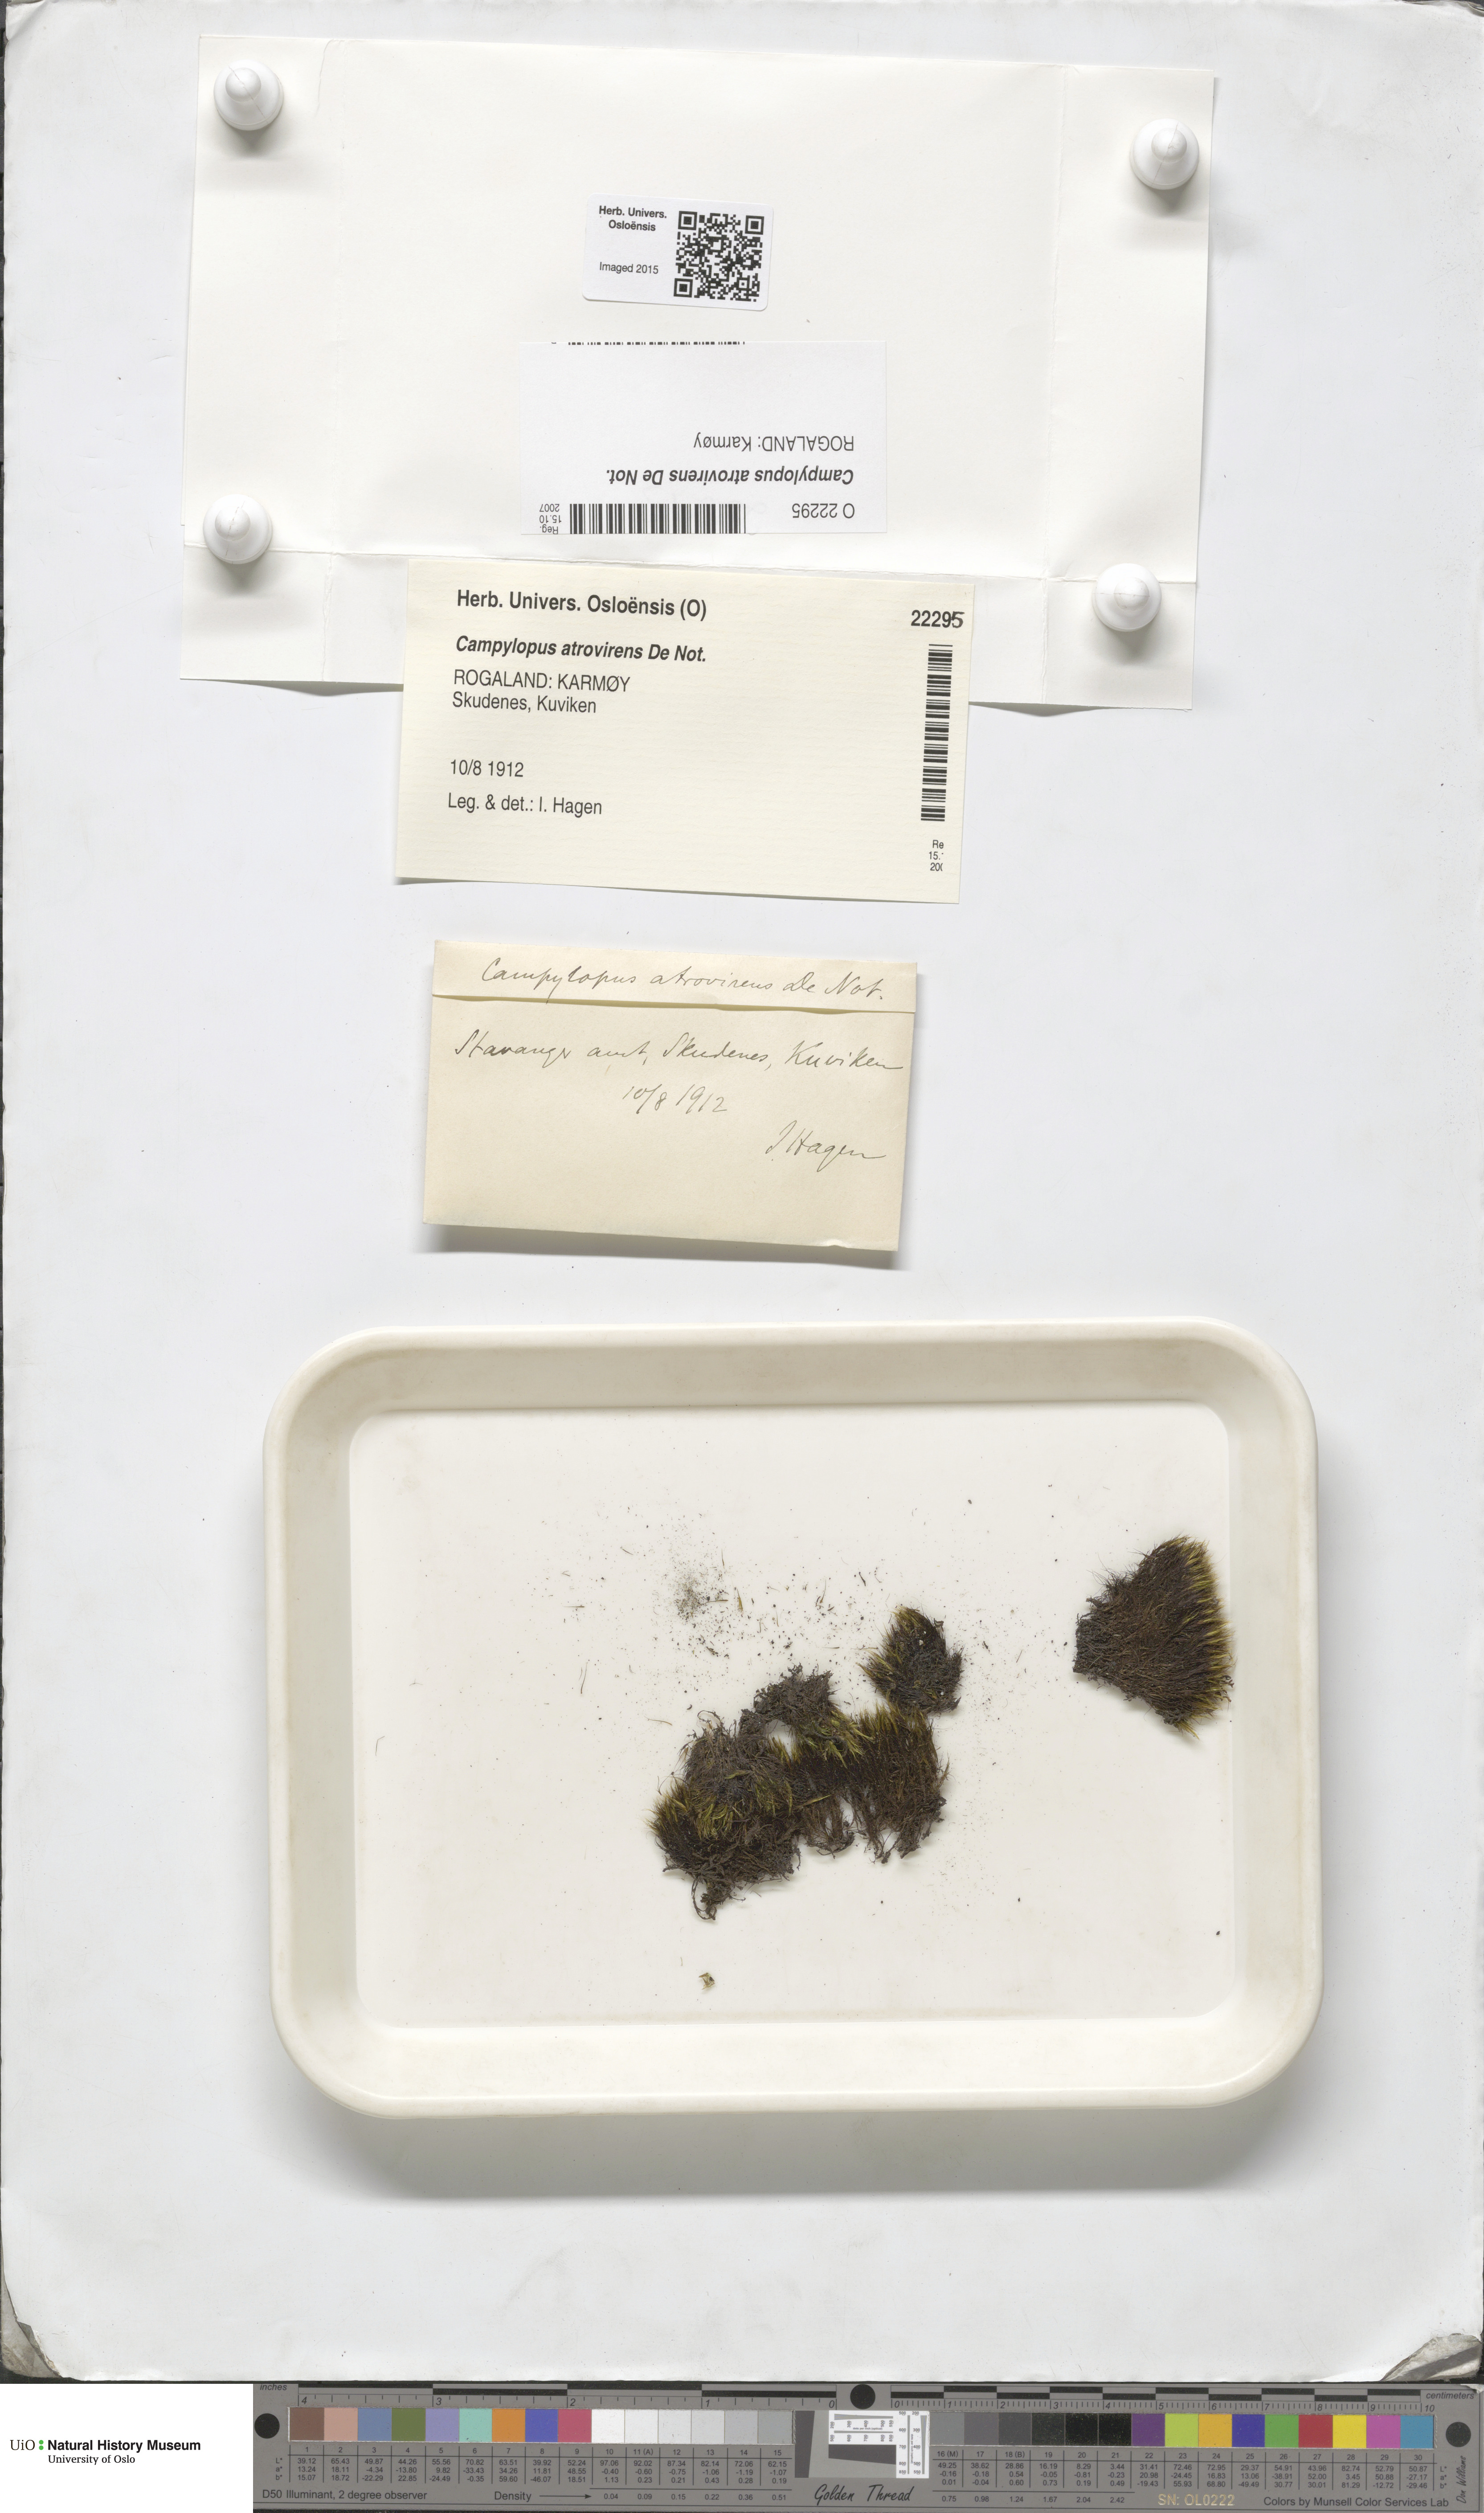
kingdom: Plantae
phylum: Bryophyta
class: Bryopsida
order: Dicranales
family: Leucobryaceae
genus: Campylopus
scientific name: Campylopus atrovirens
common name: Bristly swan-neck moss
